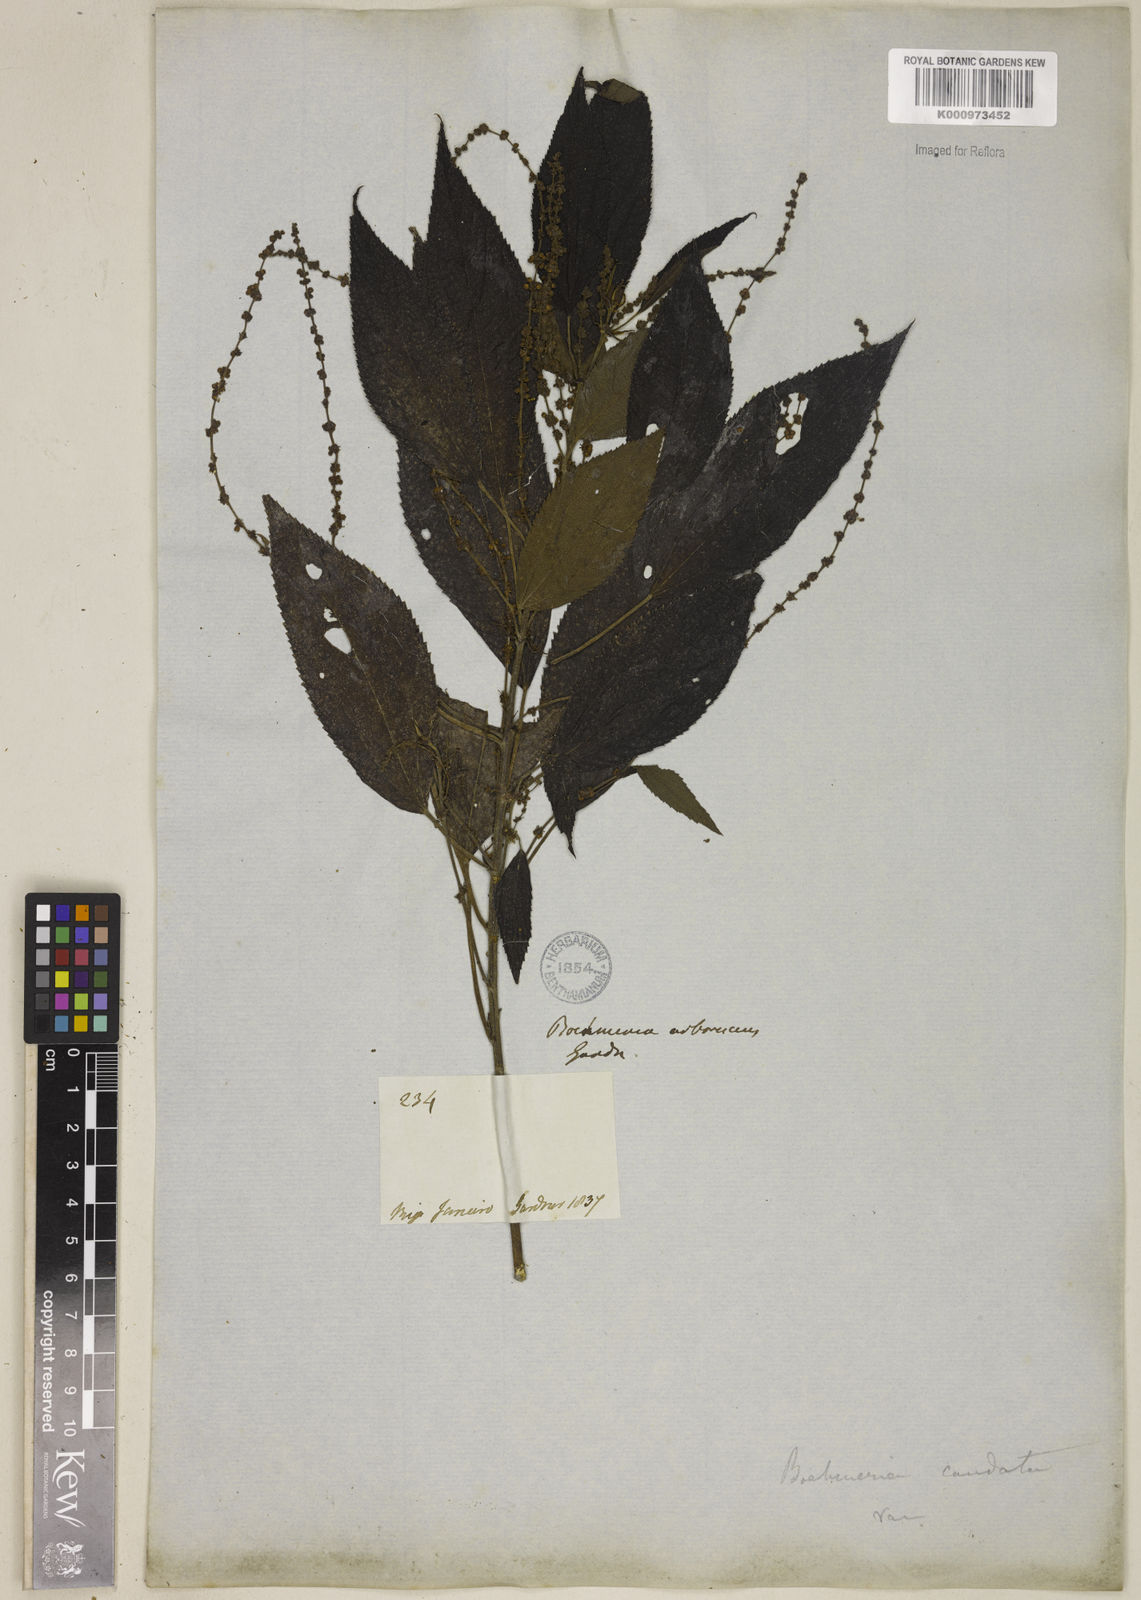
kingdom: Plantae
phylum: Tracheophyta
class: Magnoliopsida
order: Rosales
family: Urticaceae
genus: Boehmeria
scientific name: Boehmeria caudata
